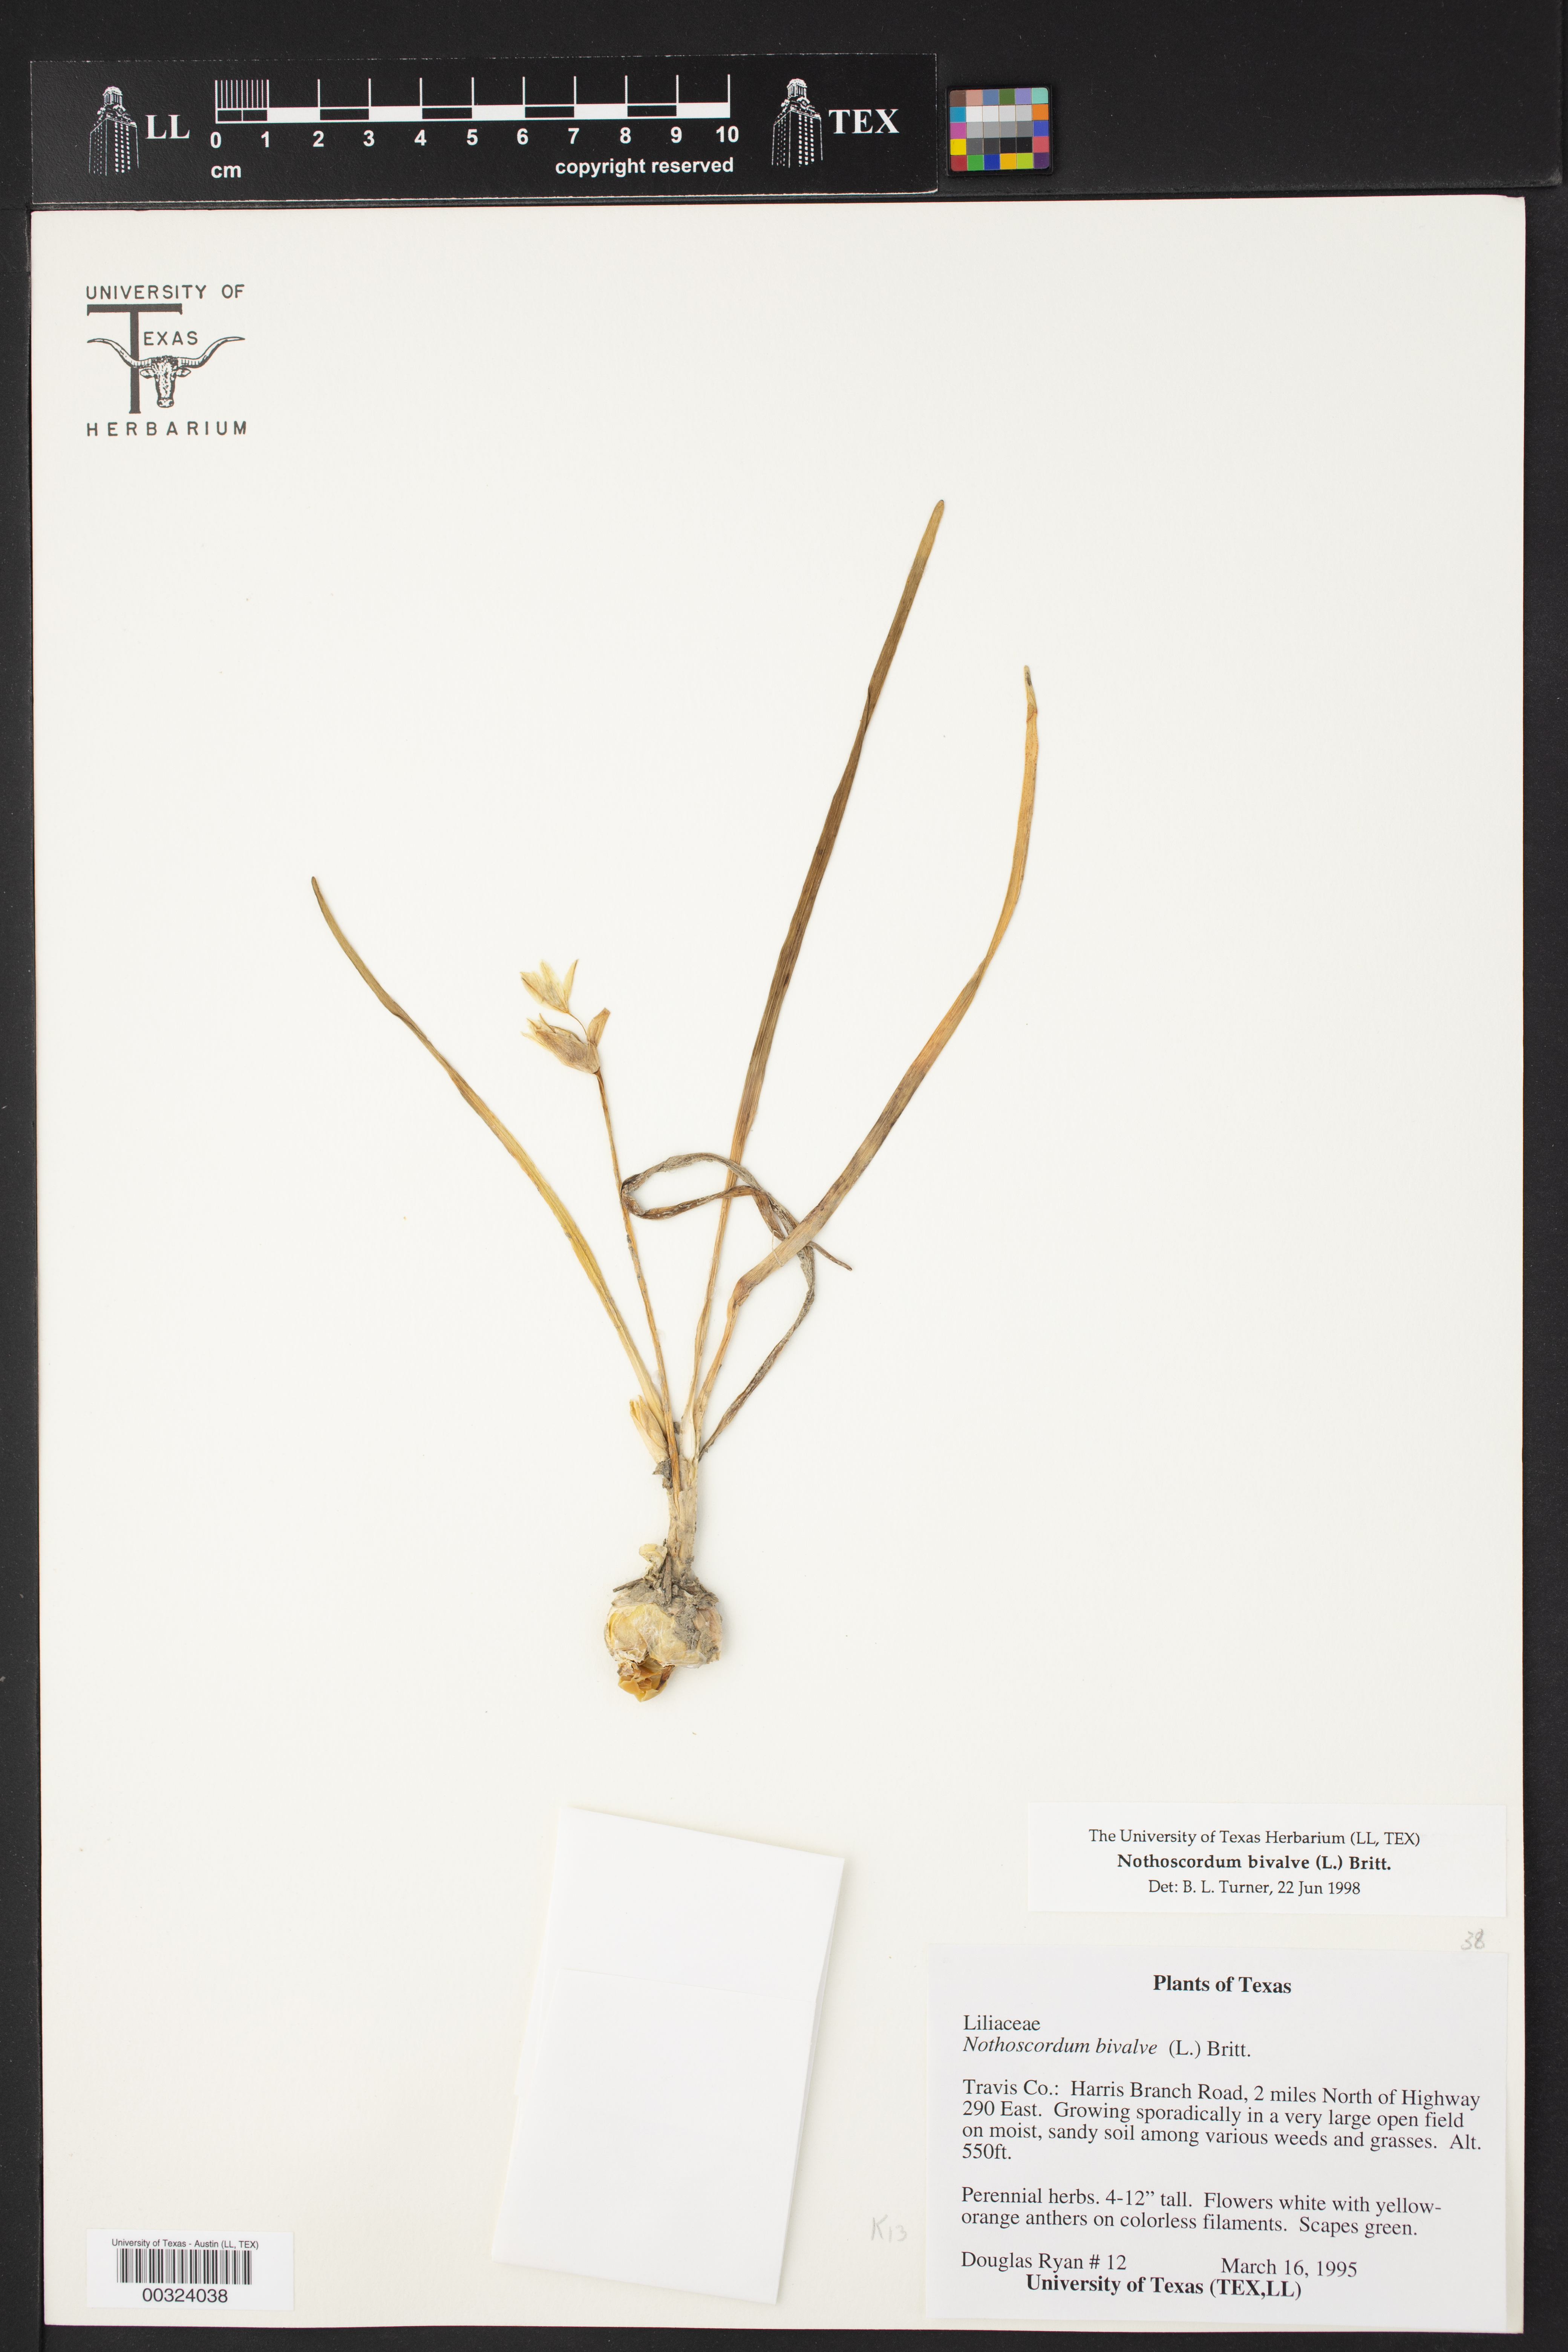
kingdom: Plantae
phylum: Tracheophyta
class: Liliopsida
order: Asparagales
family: Amaryllidaceae
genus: Nothoscordum
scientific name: Nothoscordum bivalve
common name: Crow-poison
